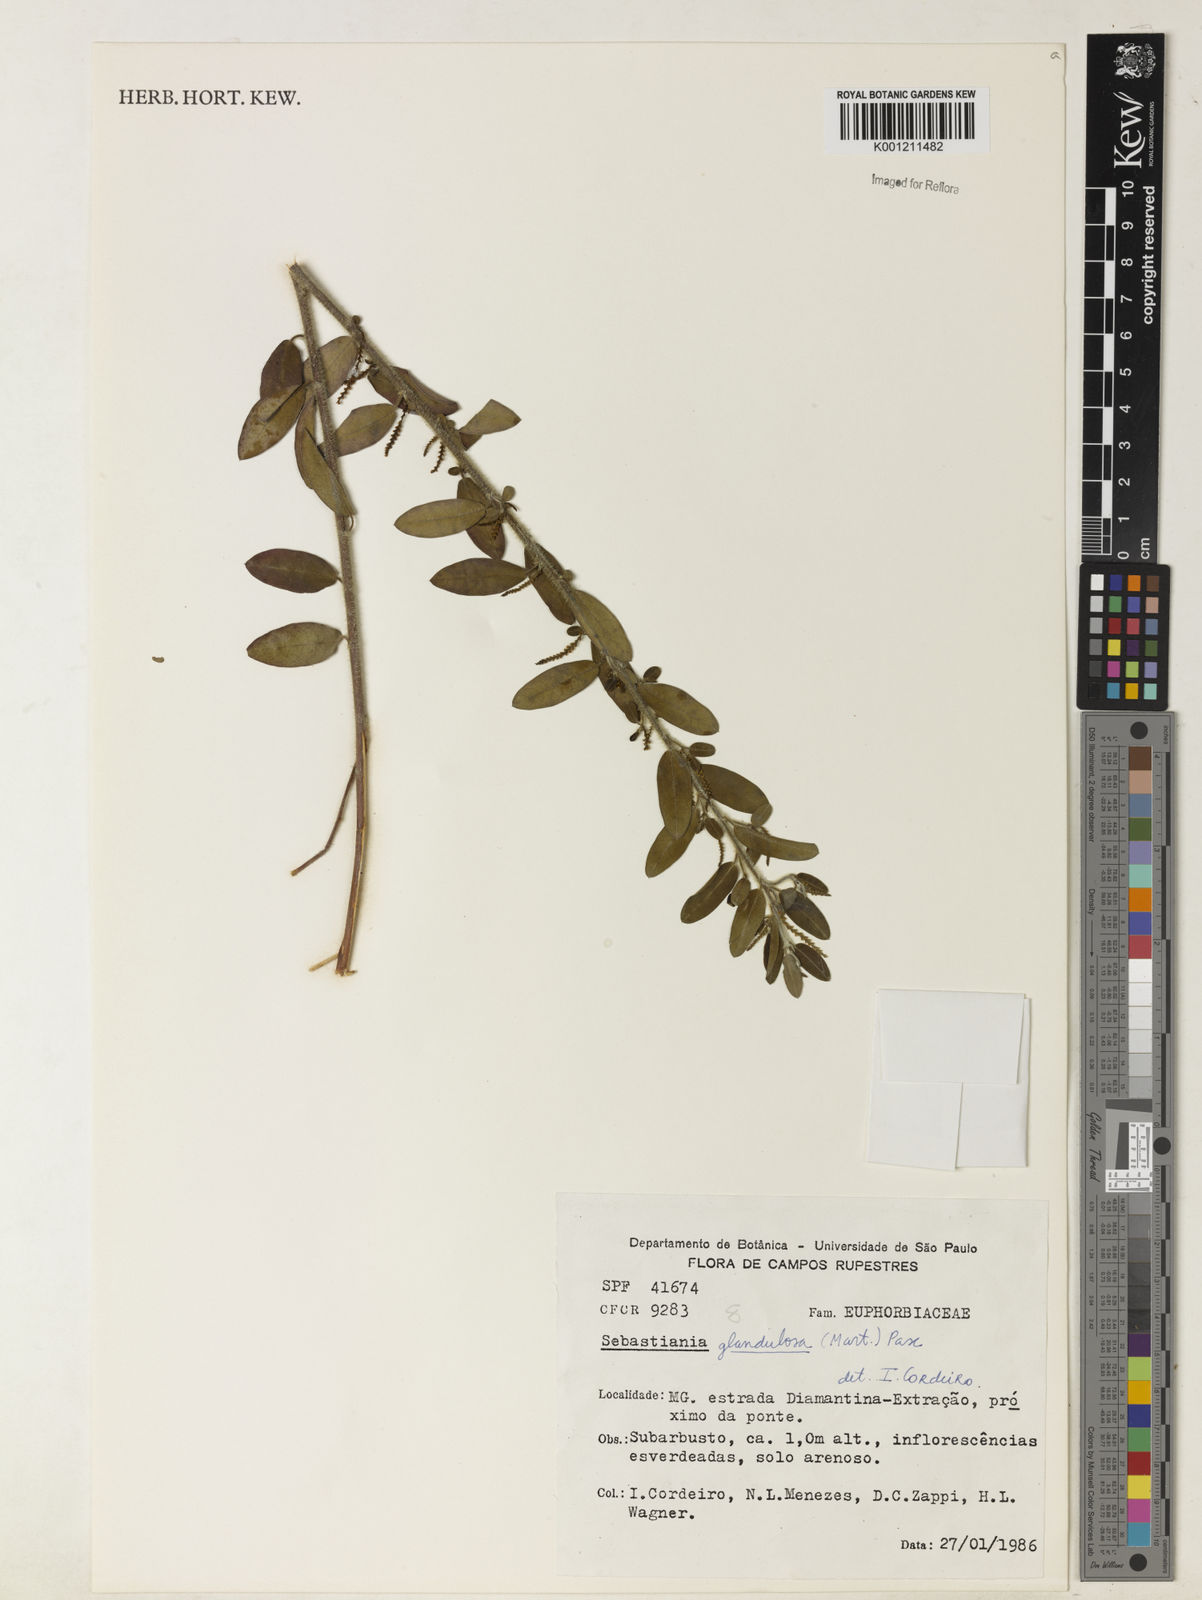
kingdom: Plantae
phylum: Tracheophyta
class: Magnoliopsida
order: Malpighiales
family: Euphorbiaceae
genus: Microstachys
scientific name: Microstachys glandulosa
